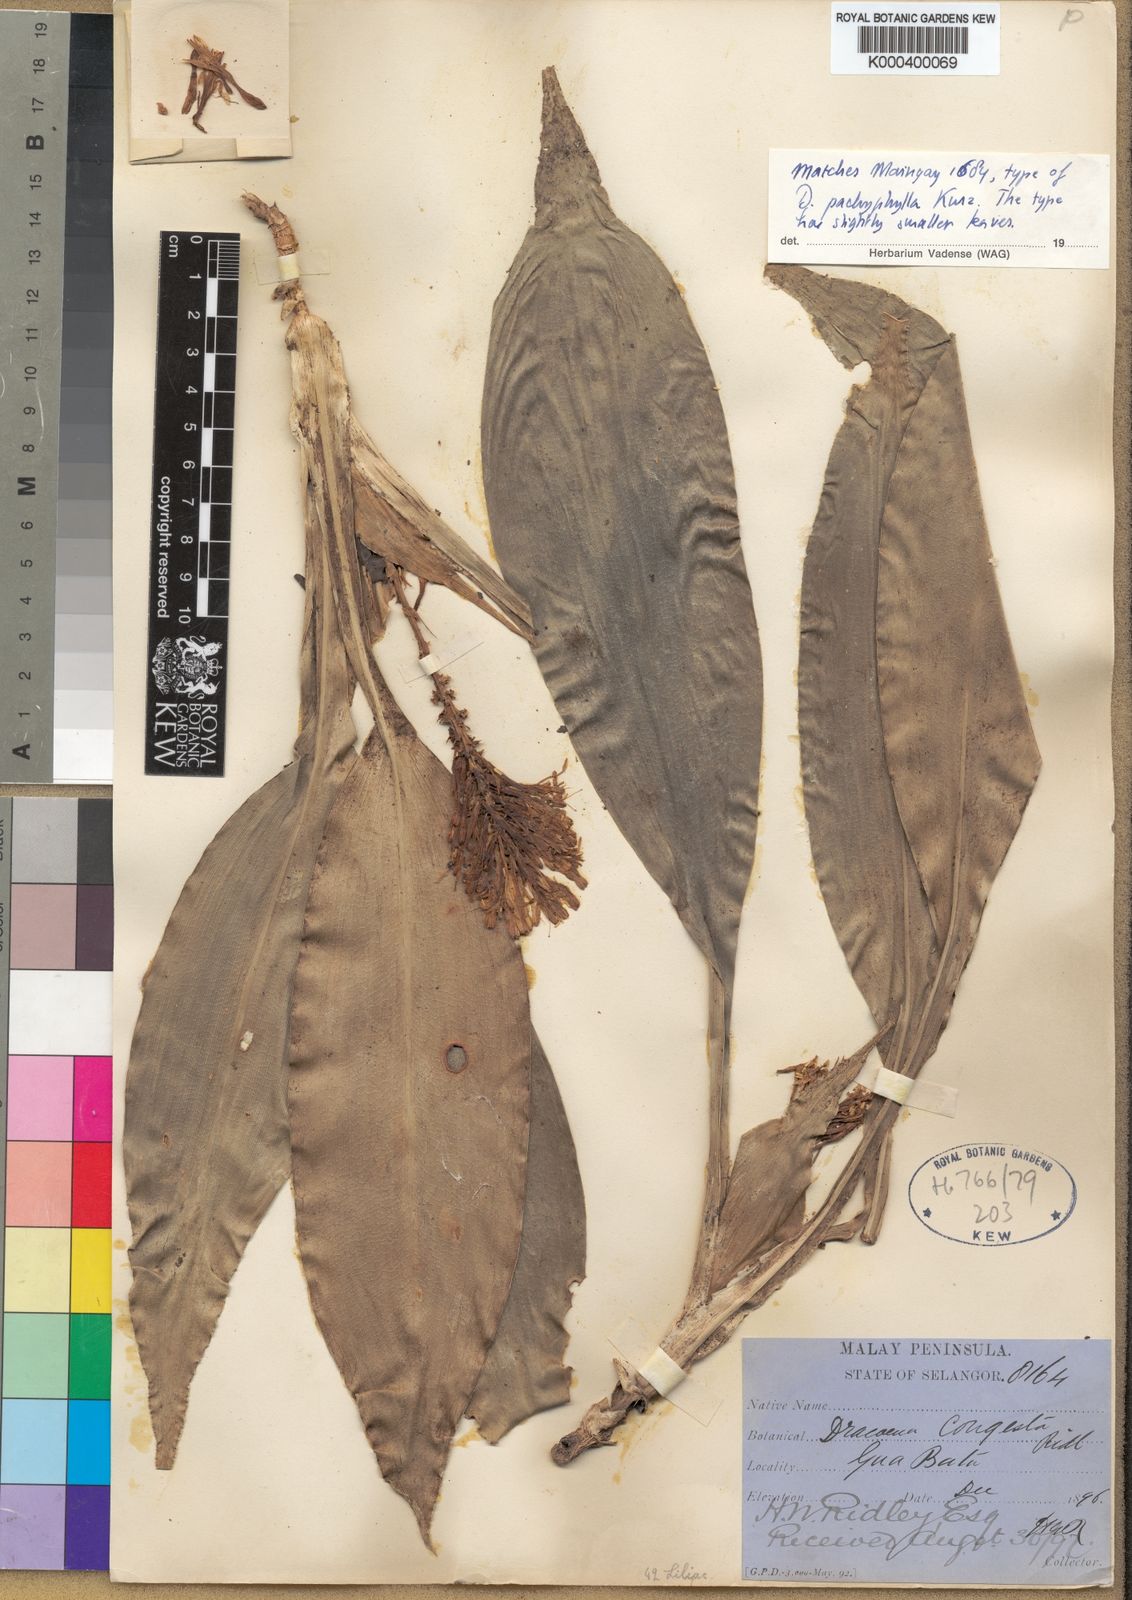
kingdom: Plantae
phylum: Tracheophyta
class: Liliopsida
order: Asparagales
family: Asparagaceae
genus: Dracaena
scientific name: Dracaena pachyphylla
